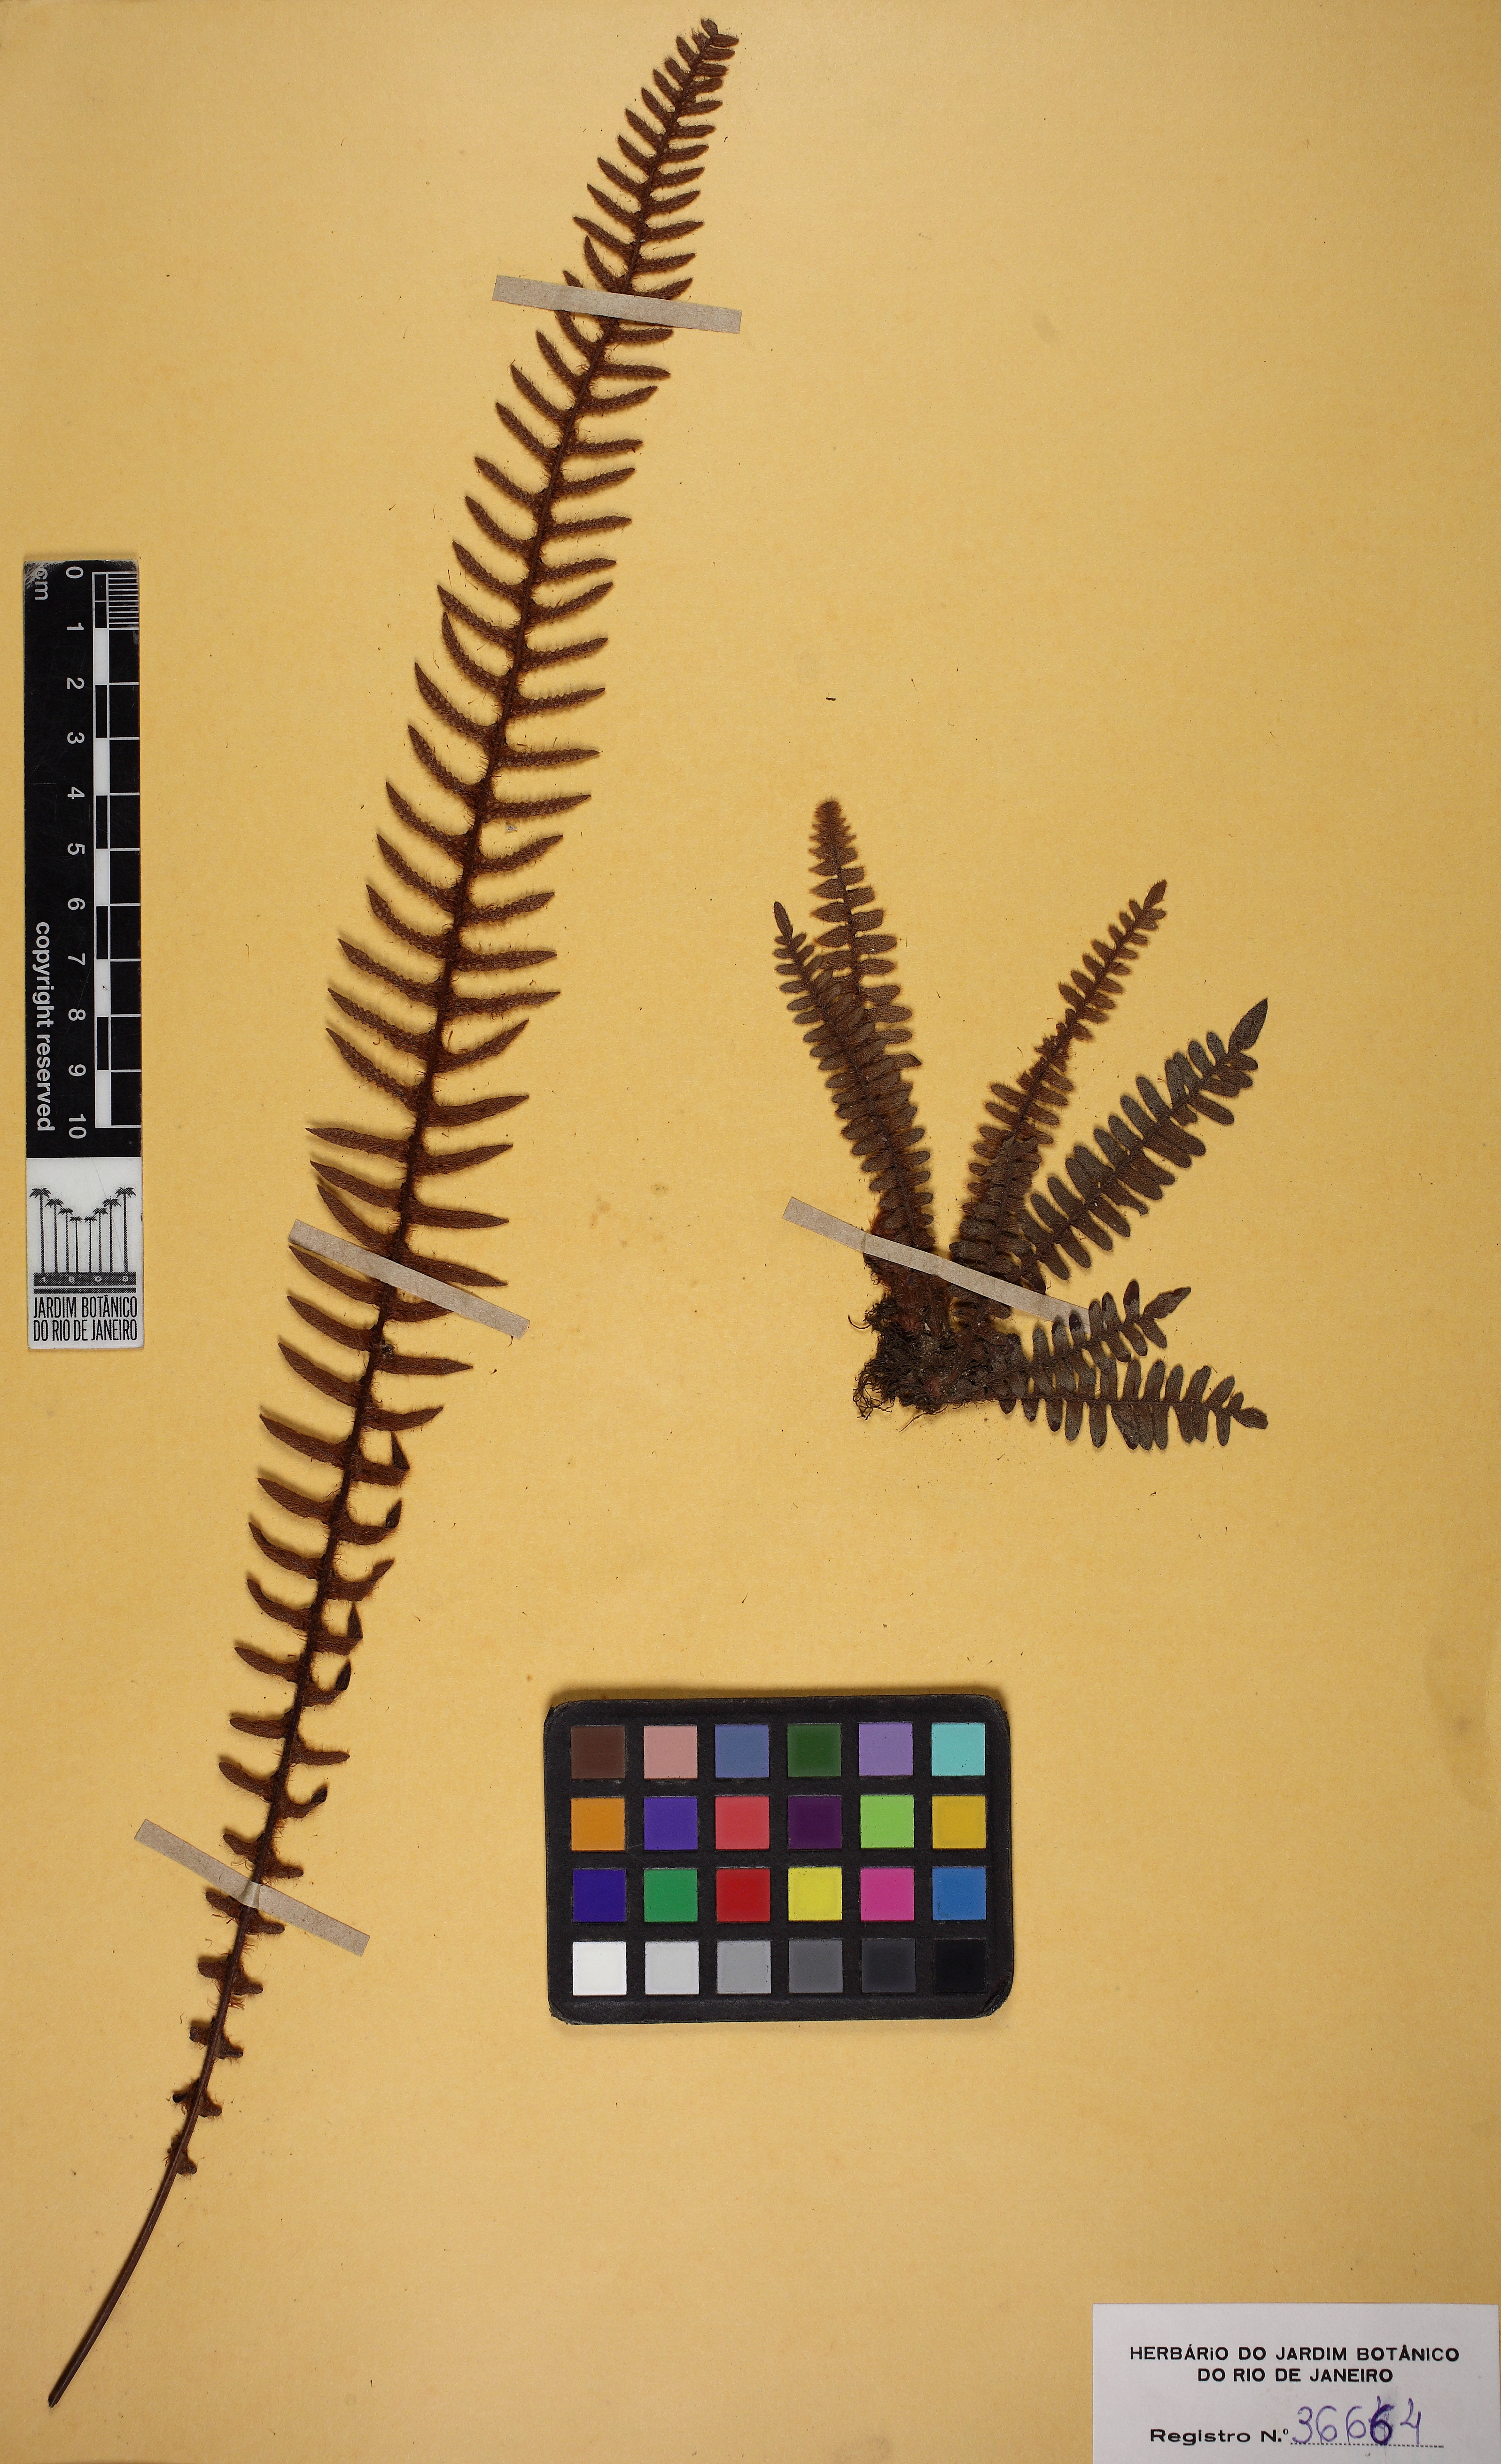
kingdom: Plantae
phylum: Tracheophyta
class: Polypodiopsida
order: Polypodiales
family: Polypodiaceae
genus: Pleopeltis
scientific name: Pleopeltis hirsutissima
